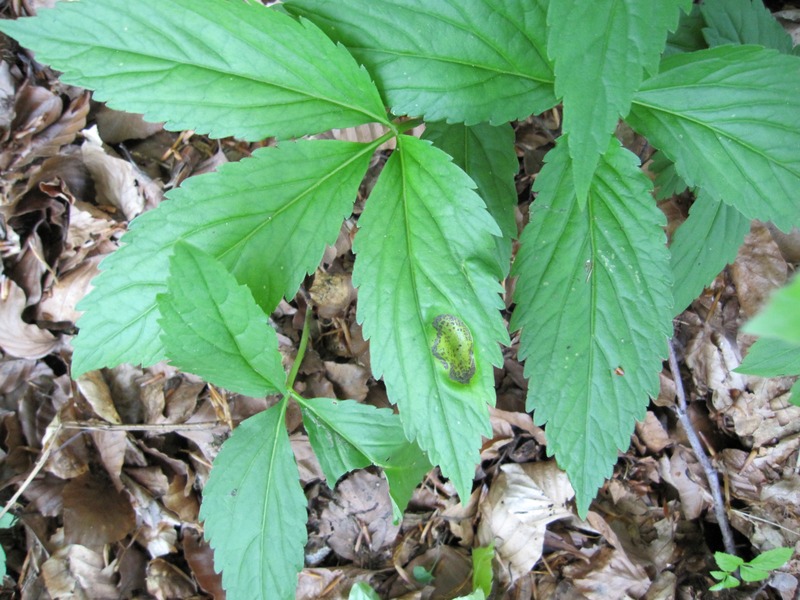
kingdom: Fungi
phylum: Basidiomycota
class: Pucciniomycetes
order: Pucciniales
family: Pucciniaceae
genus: Puccinia
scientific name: Puccinia dentariae
